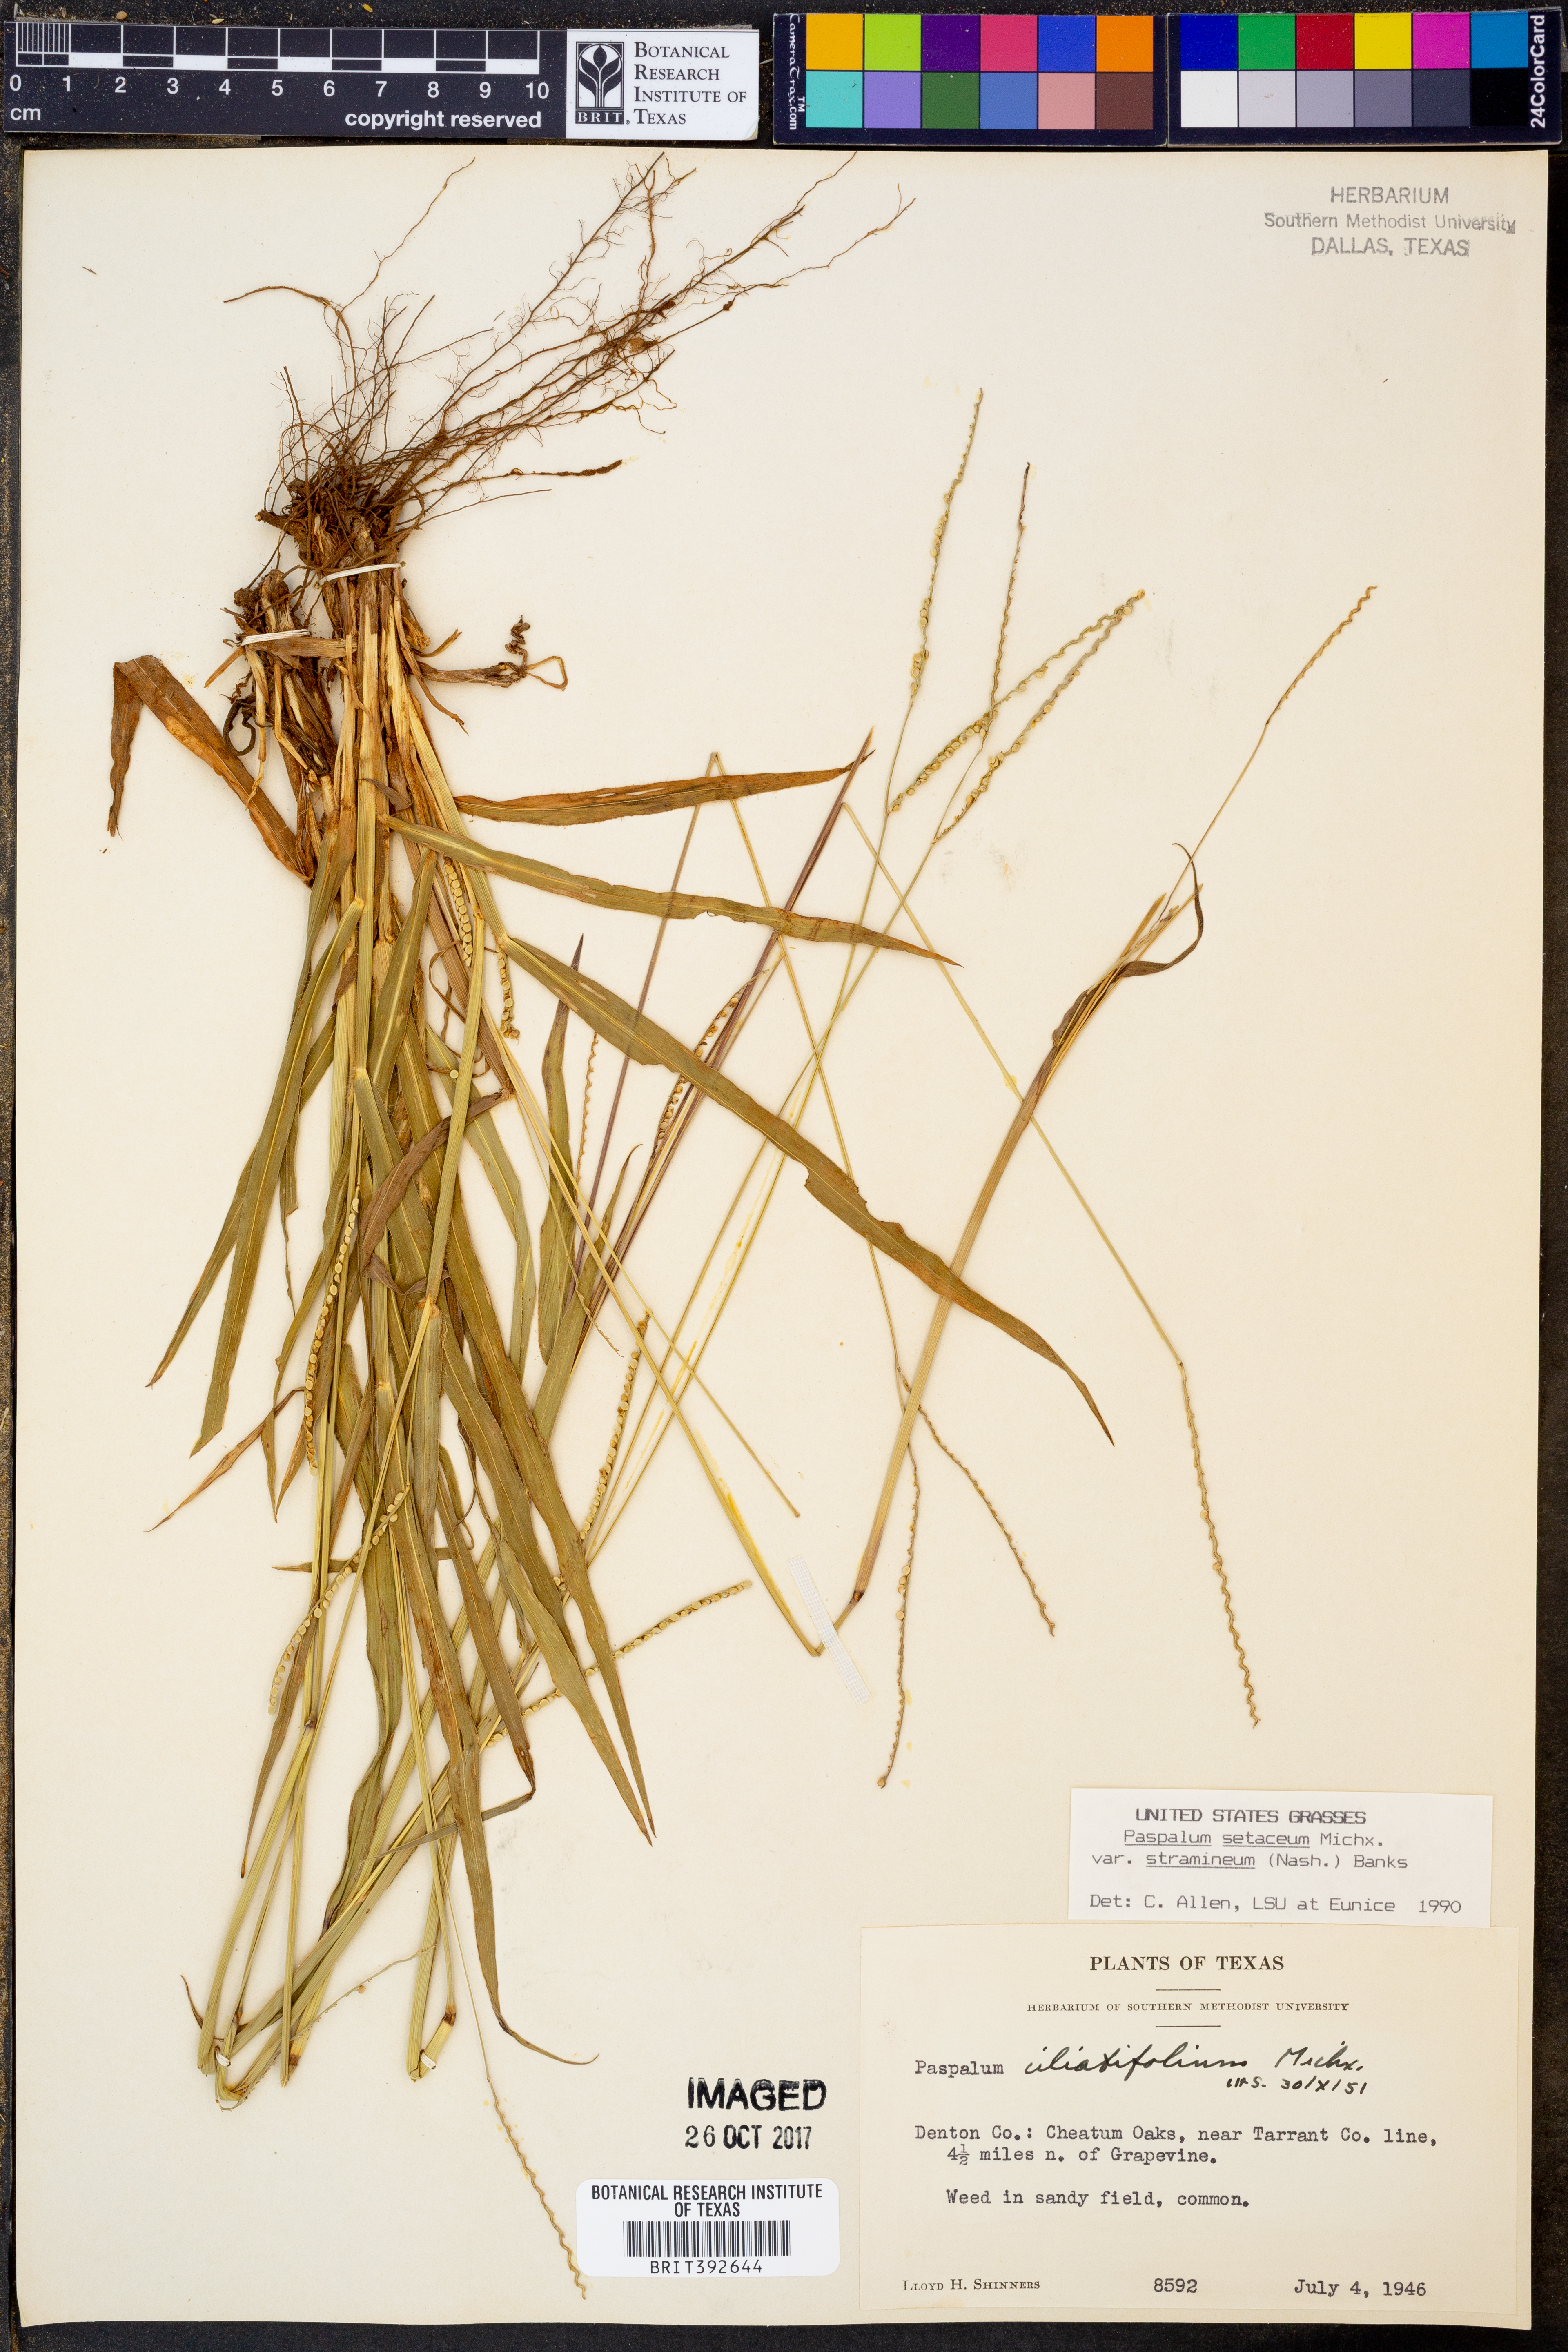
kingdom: Plantae
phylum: Tracheophyta
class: Liliopsida
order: Poales
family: Poaceae
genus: Paspalum
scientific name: Paspalum setaceum
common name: Slender paspalum
